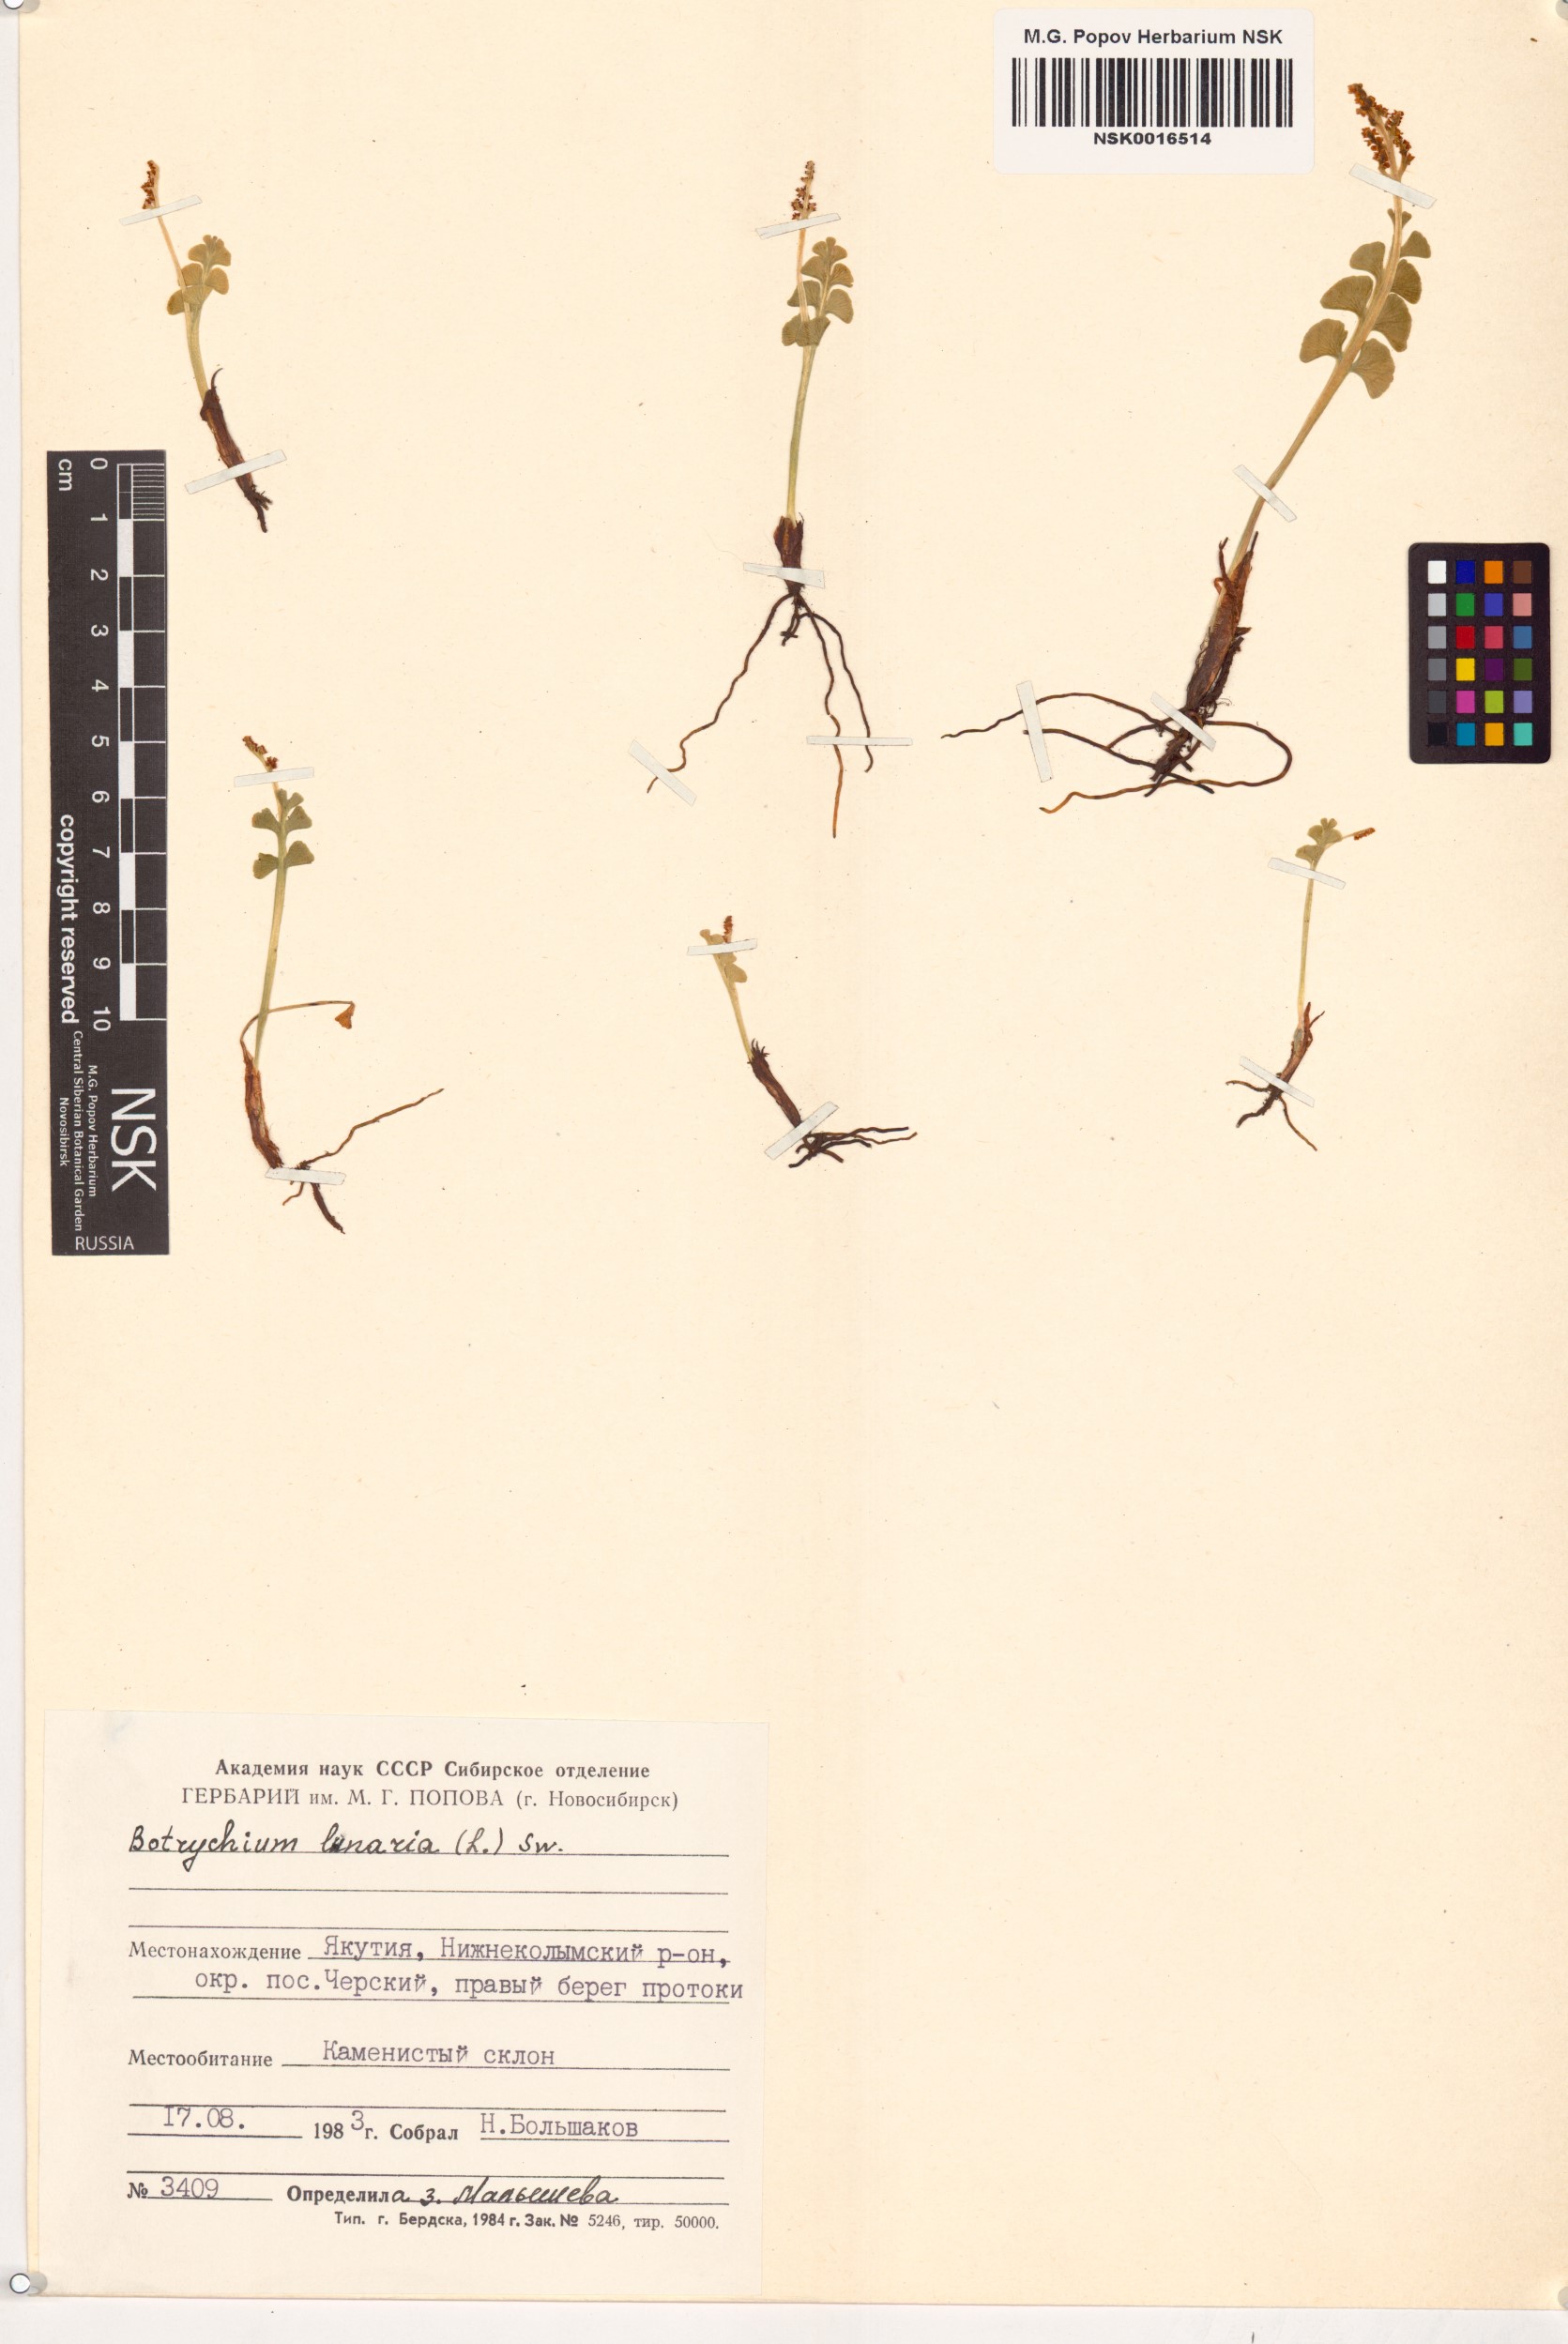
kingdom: Plantae
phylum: Tracheophyta
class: Polypodiopsida
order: Ophioglossales
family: Ophioglossaceae
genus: Botrychium
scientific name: Botrychium lunaria
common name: Moonwort
